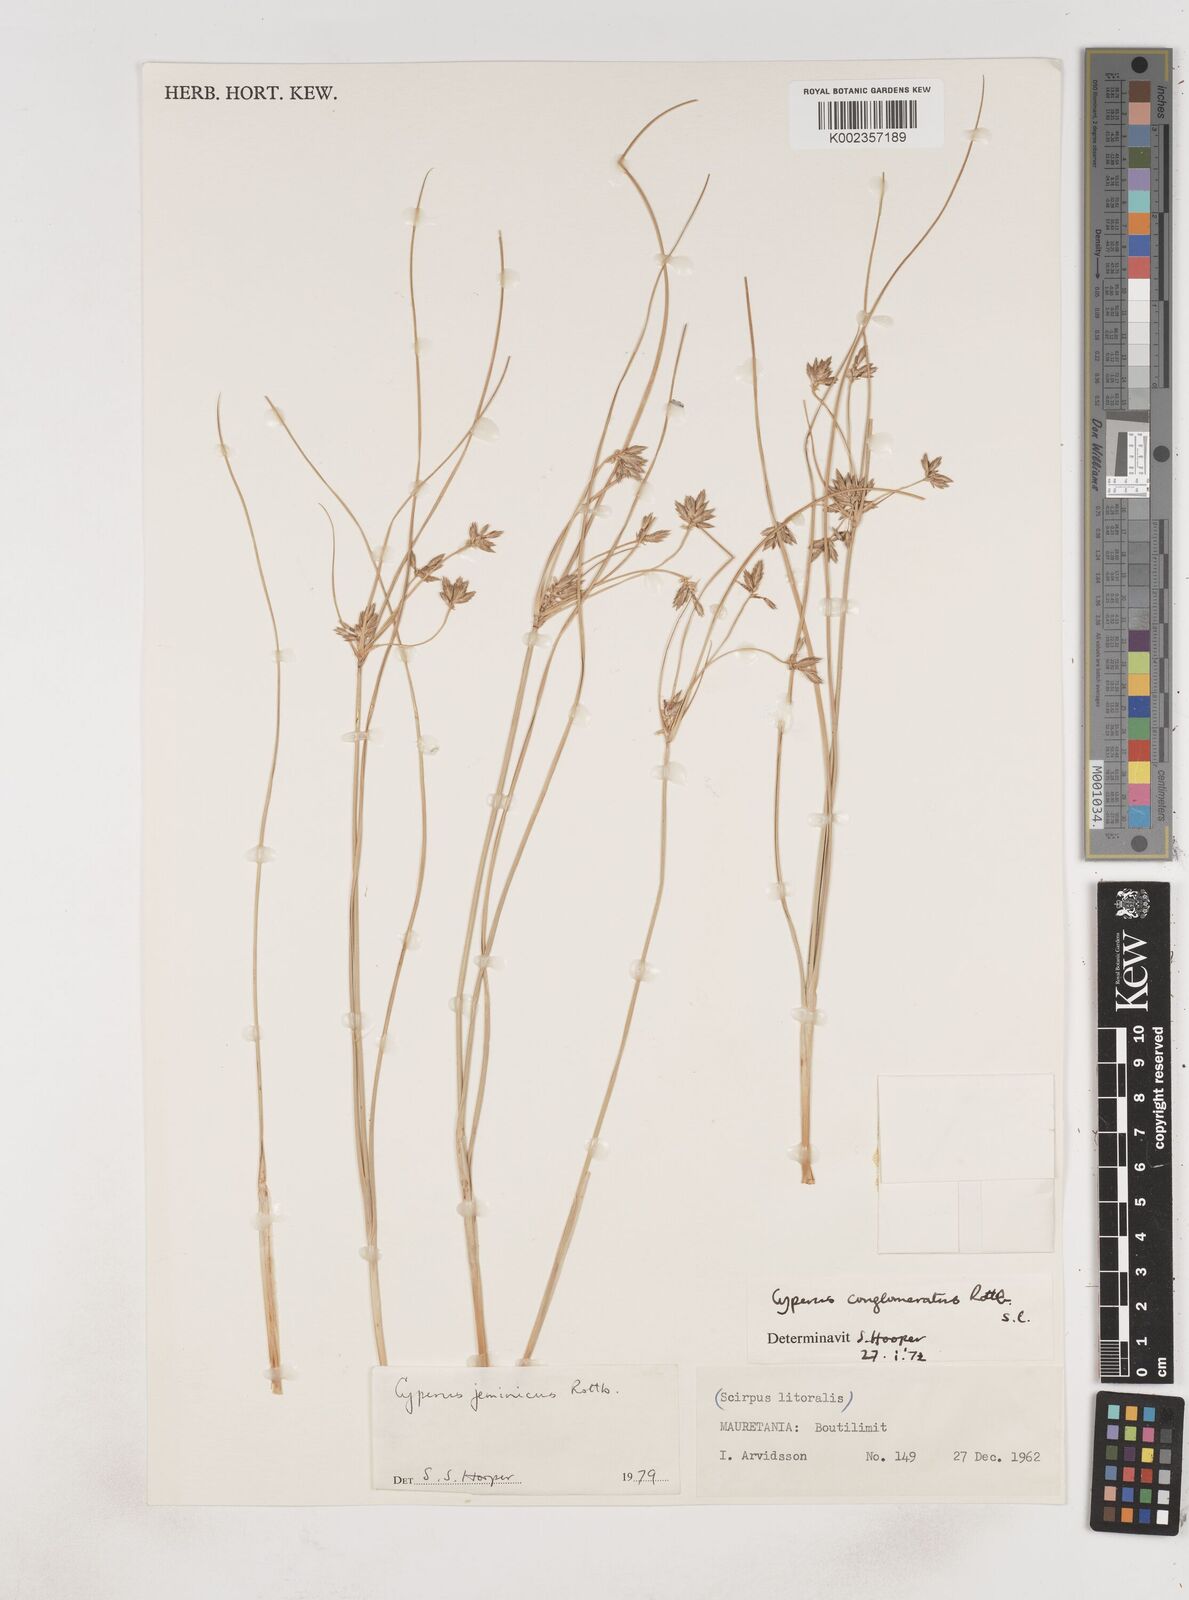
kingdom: Plantae
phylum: Tracheophyta
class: Liliopsida
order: Poales
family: Cyperaceae
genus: Cyperus
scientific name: Cyperus jeminicus
